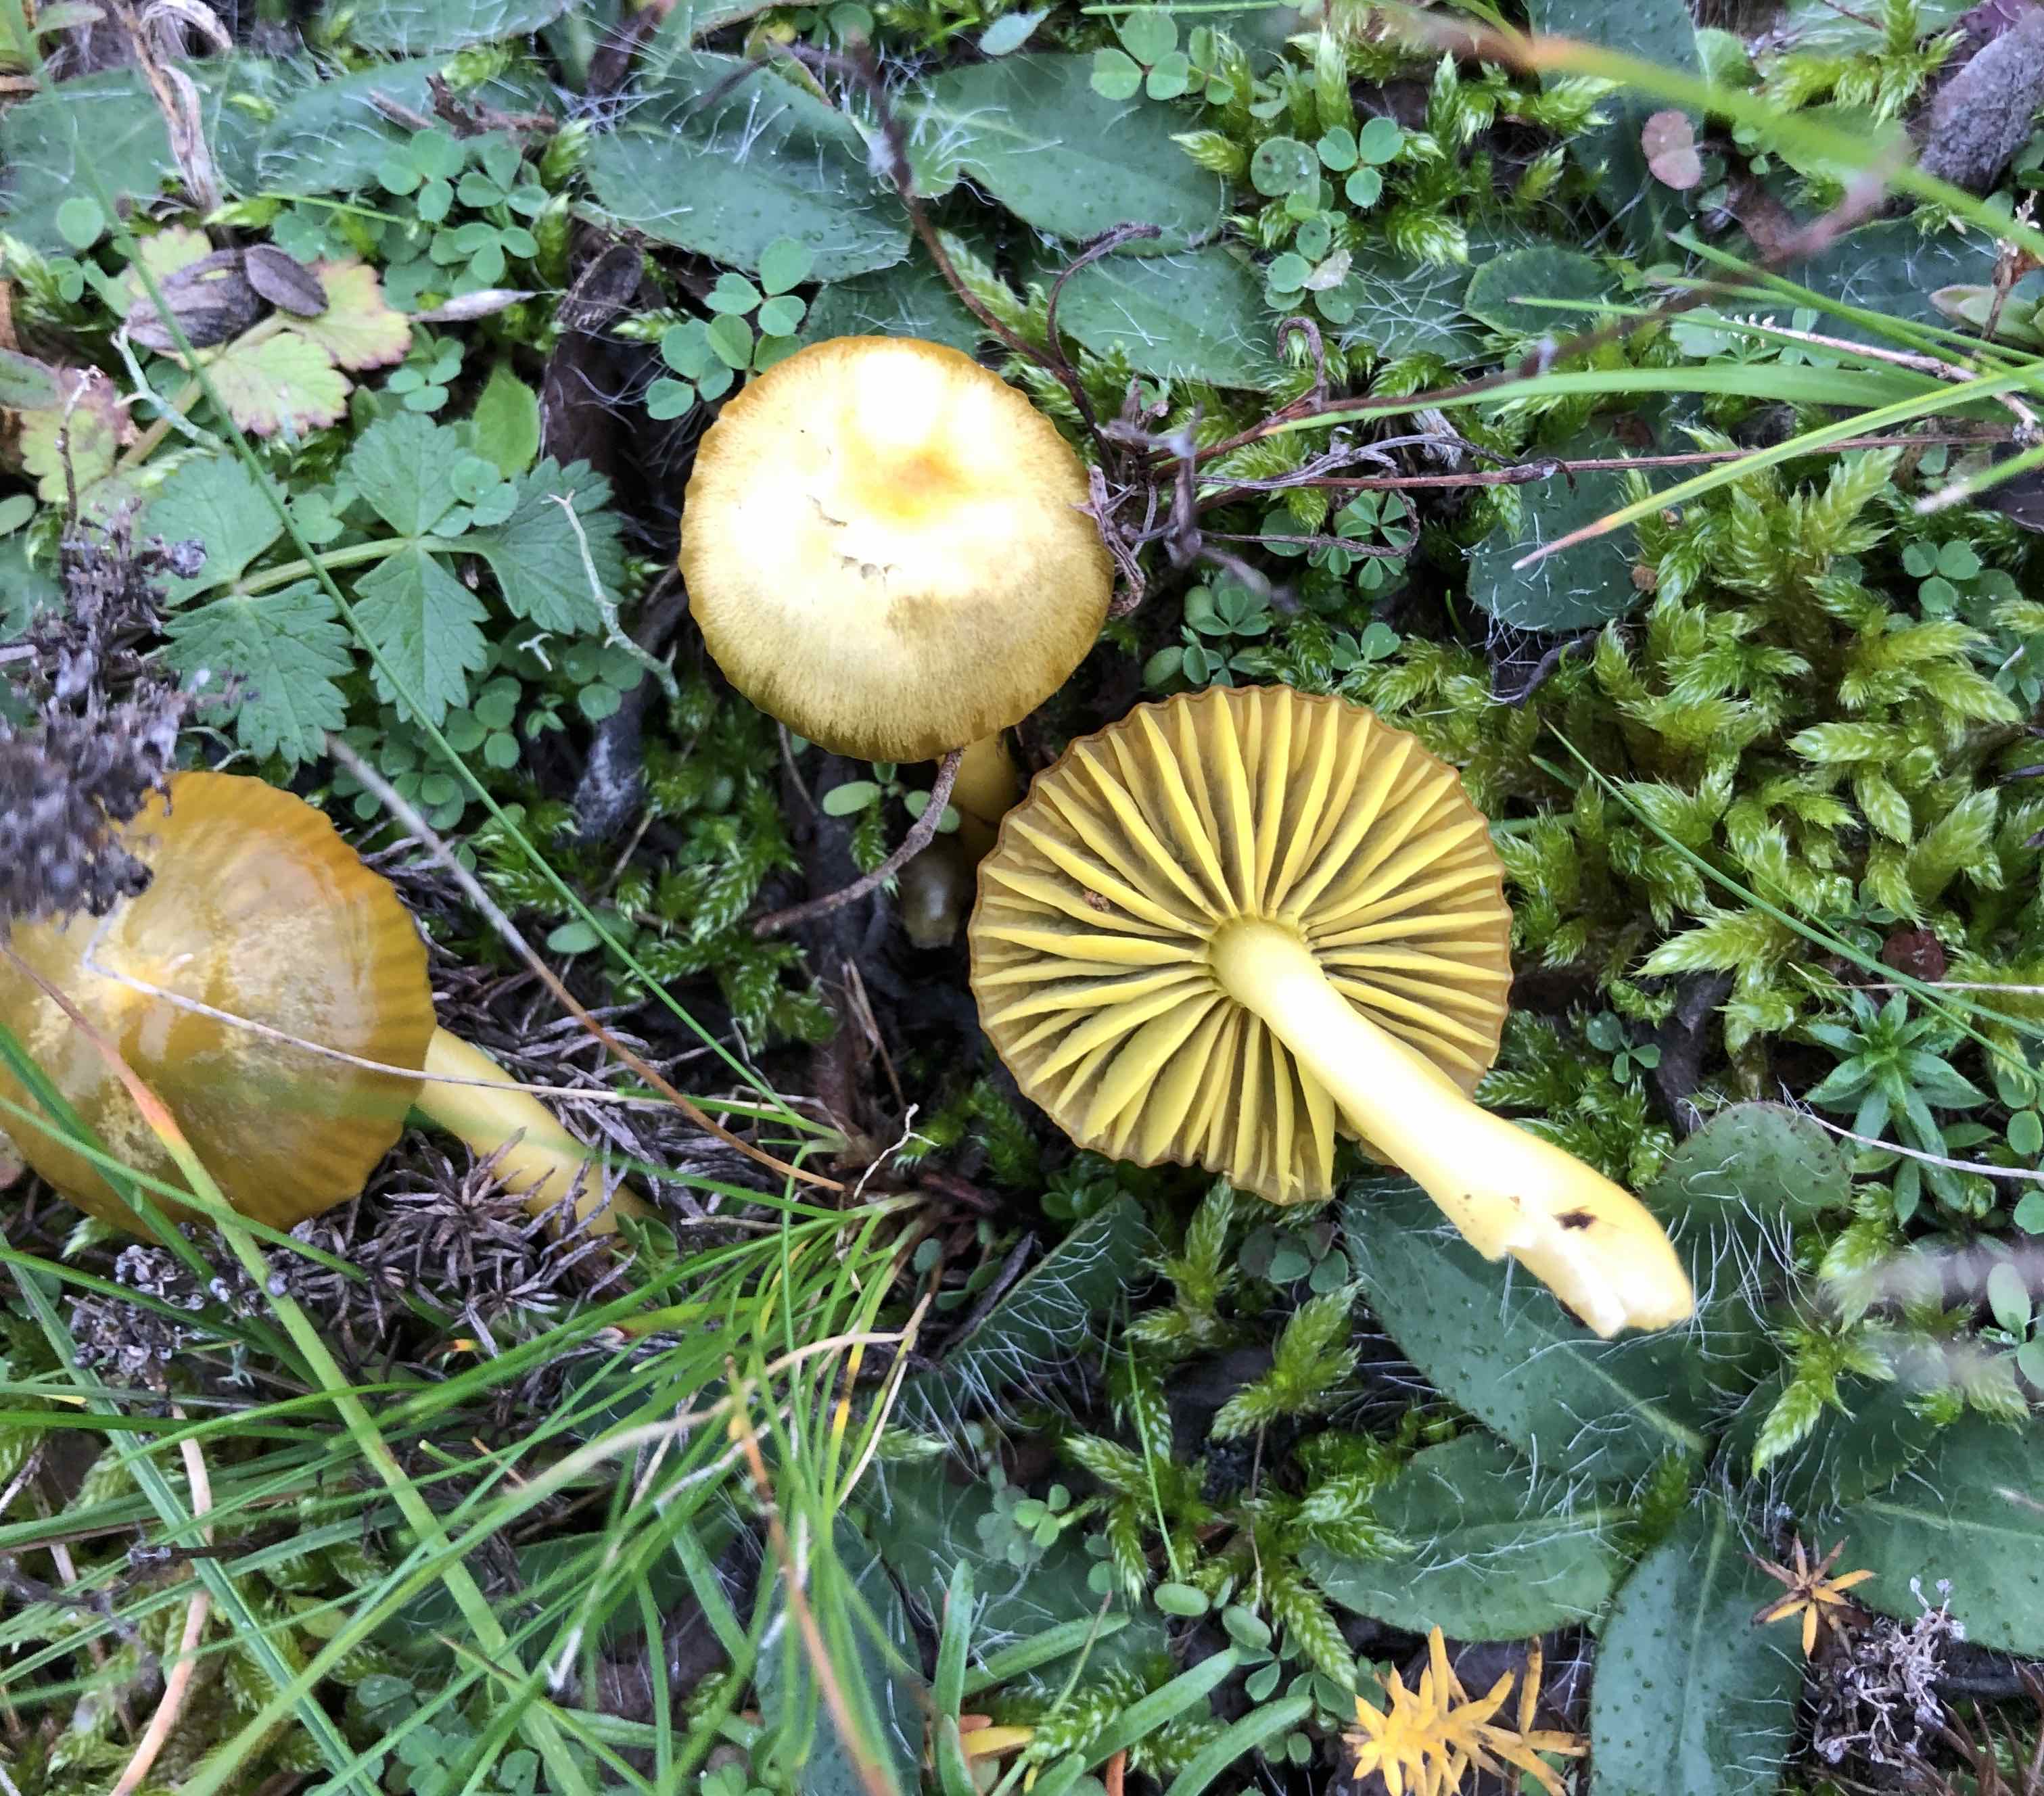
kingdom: Fungi
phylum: Basidiomycota
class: Agaricomycetes
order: Agaricales
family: Hygrophoraceae
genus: Gliophorus
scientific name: Gliophorus psittacinus
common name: papegøje-vokshat
